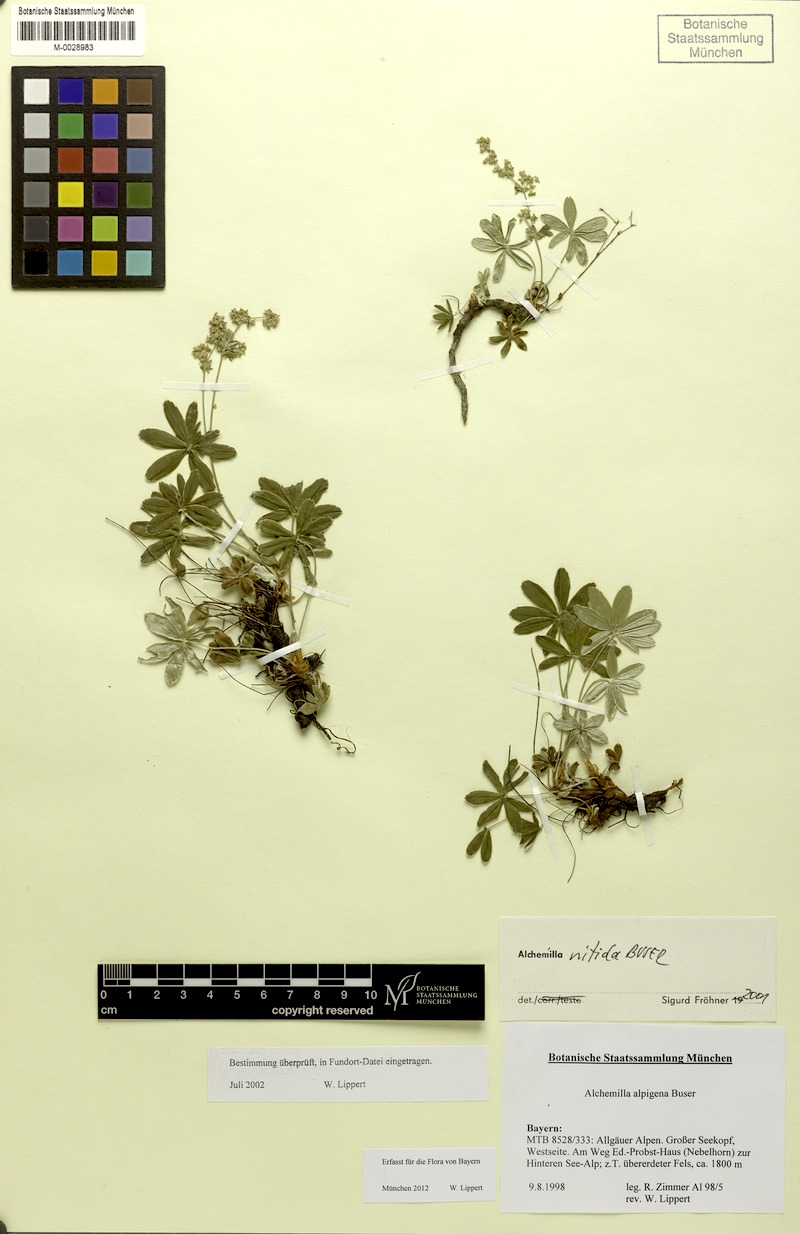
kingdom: Plantae
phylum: Tracheophyta
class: Magnoliopsida
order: Rosales
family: Rosaceae
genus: Alchemilla
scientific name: Alchemilla nitida
